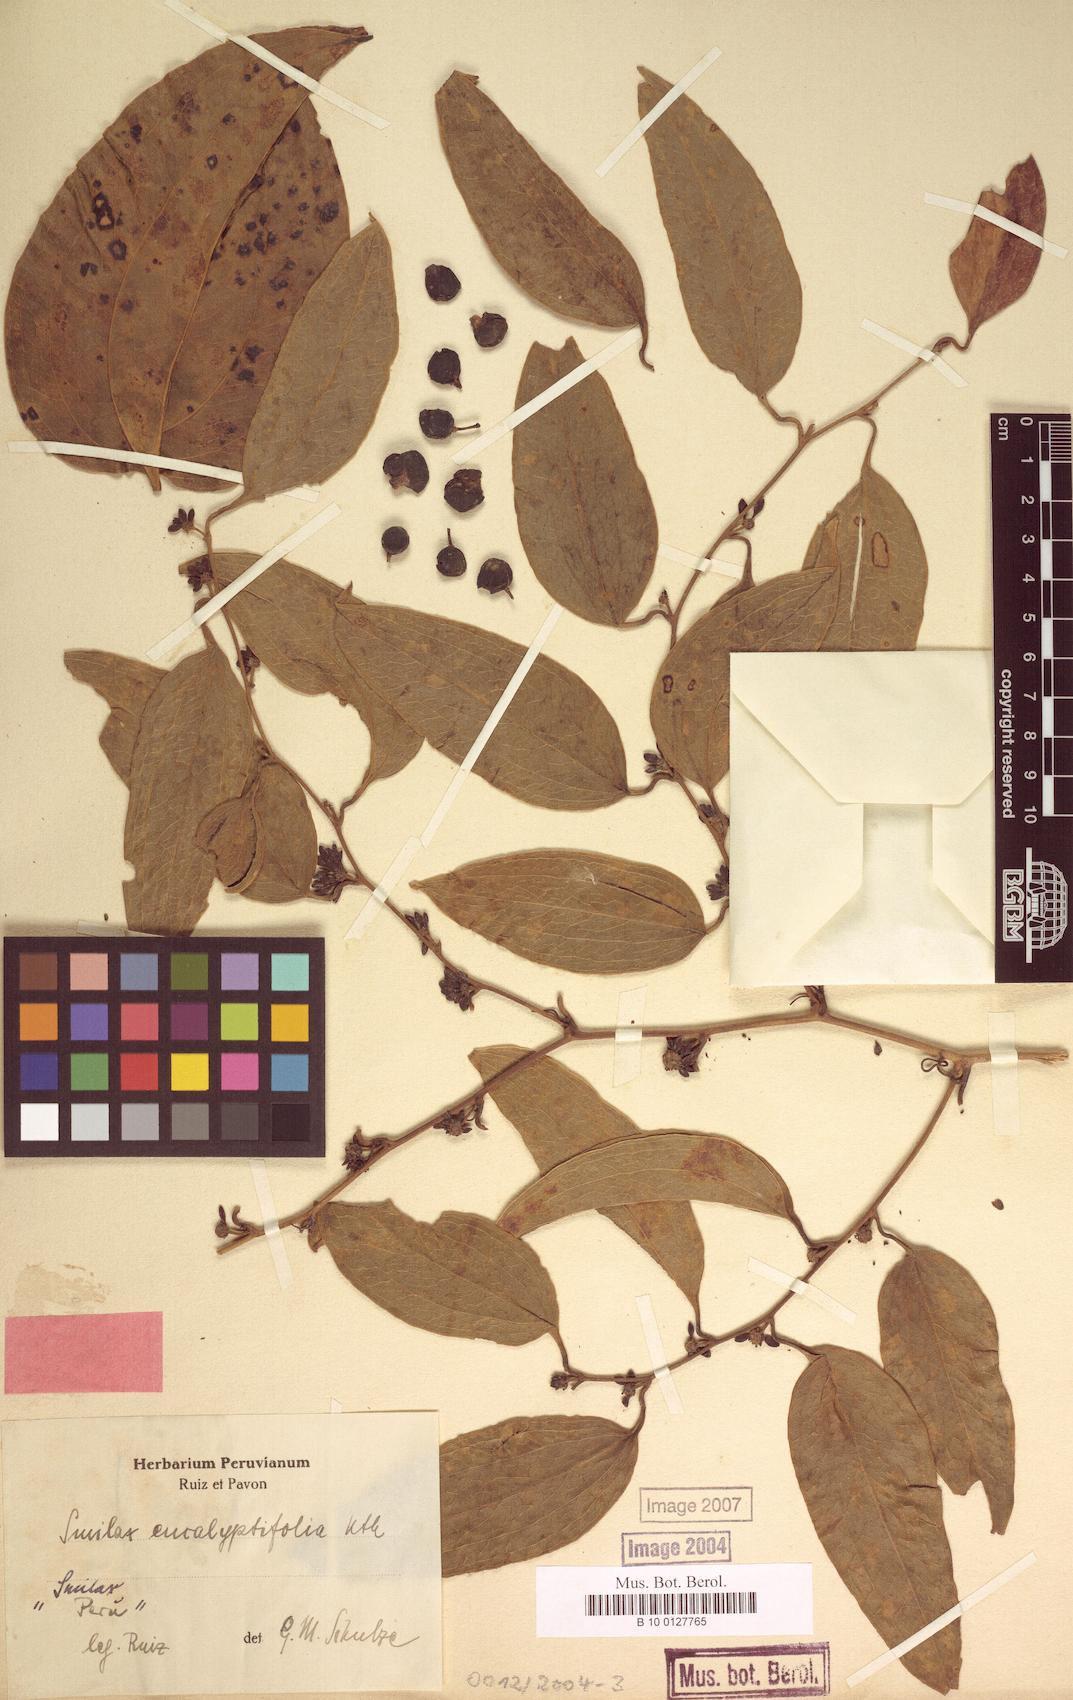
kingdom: Plantae
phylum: Tracheophyta
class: Liliopsida
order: Liliales
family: Smilacaceae
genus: Smilax
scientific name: Smilax domingensis
